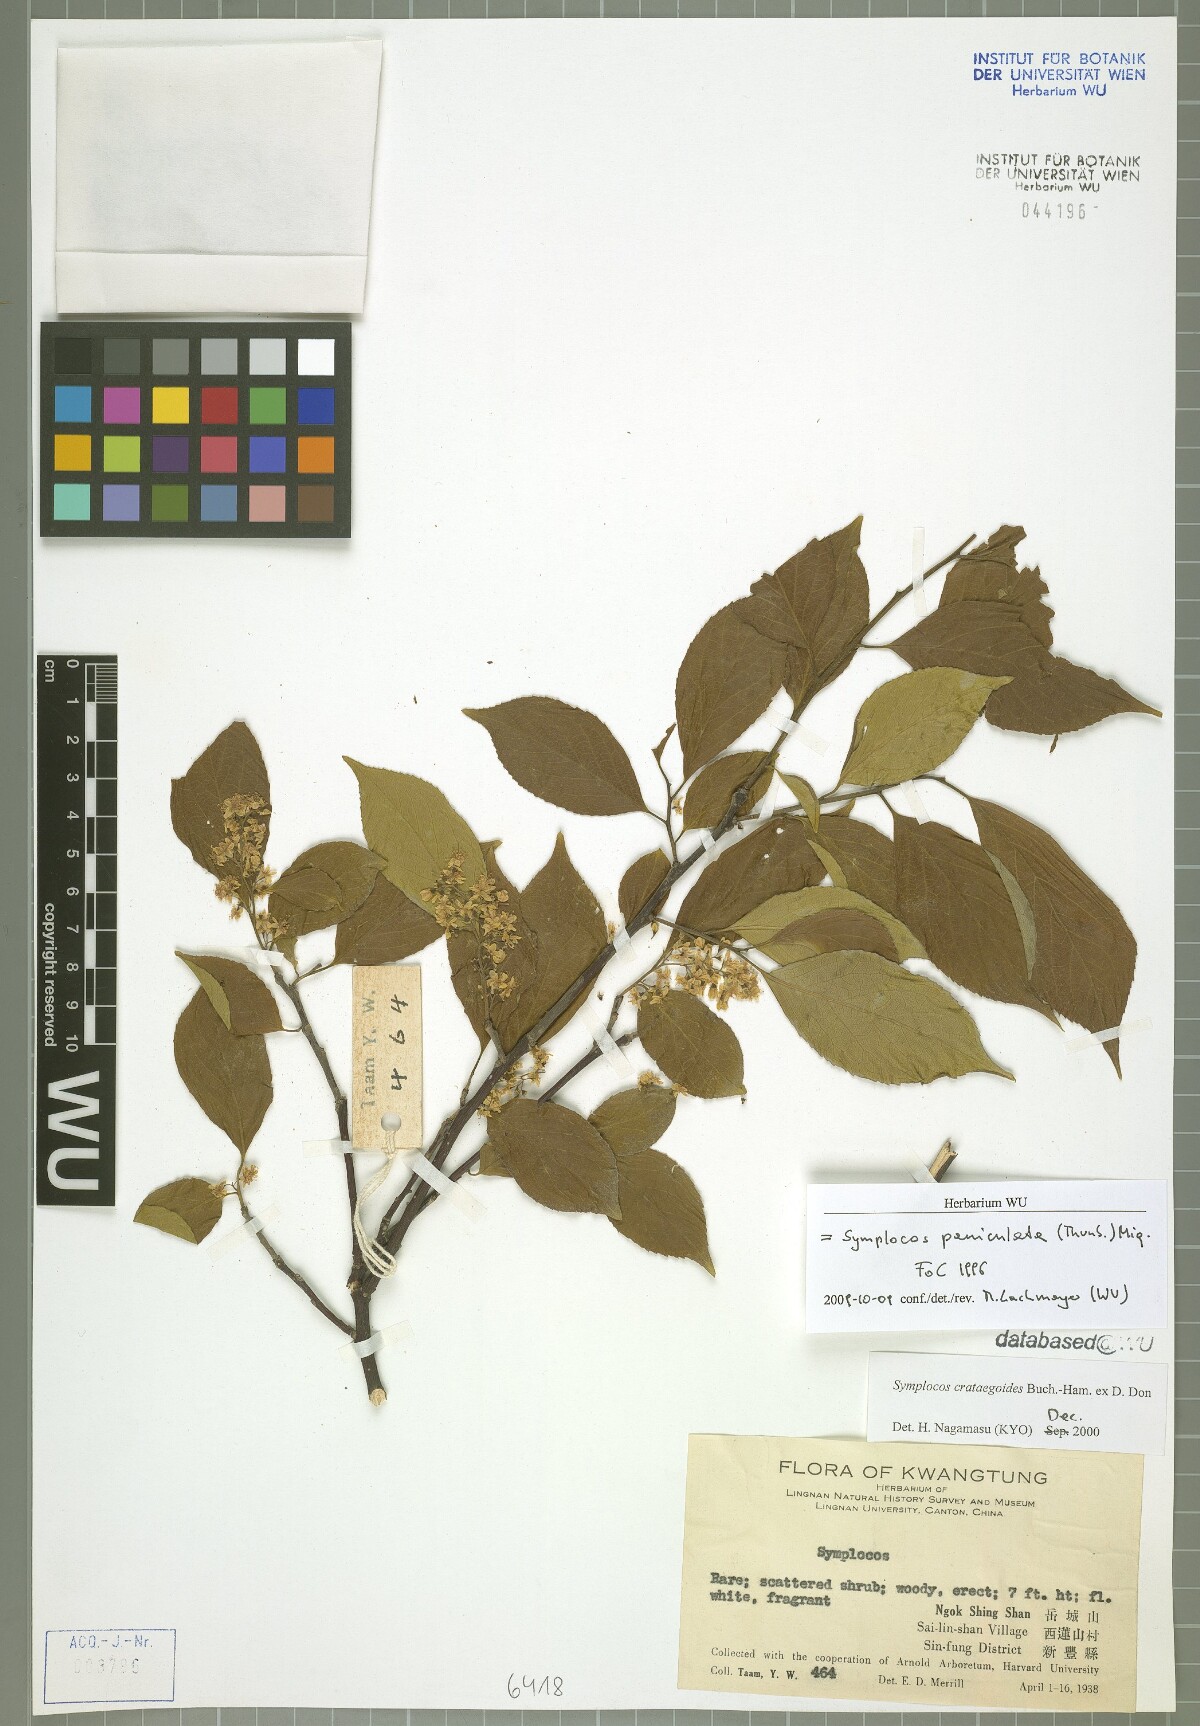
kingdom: Plantae
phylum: Tracheophyta
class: Magnoliopsida
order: Ericales
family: Symplocaceae
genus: Symplocos
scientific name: Symplocos paniculata
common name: Sapphire-berry
